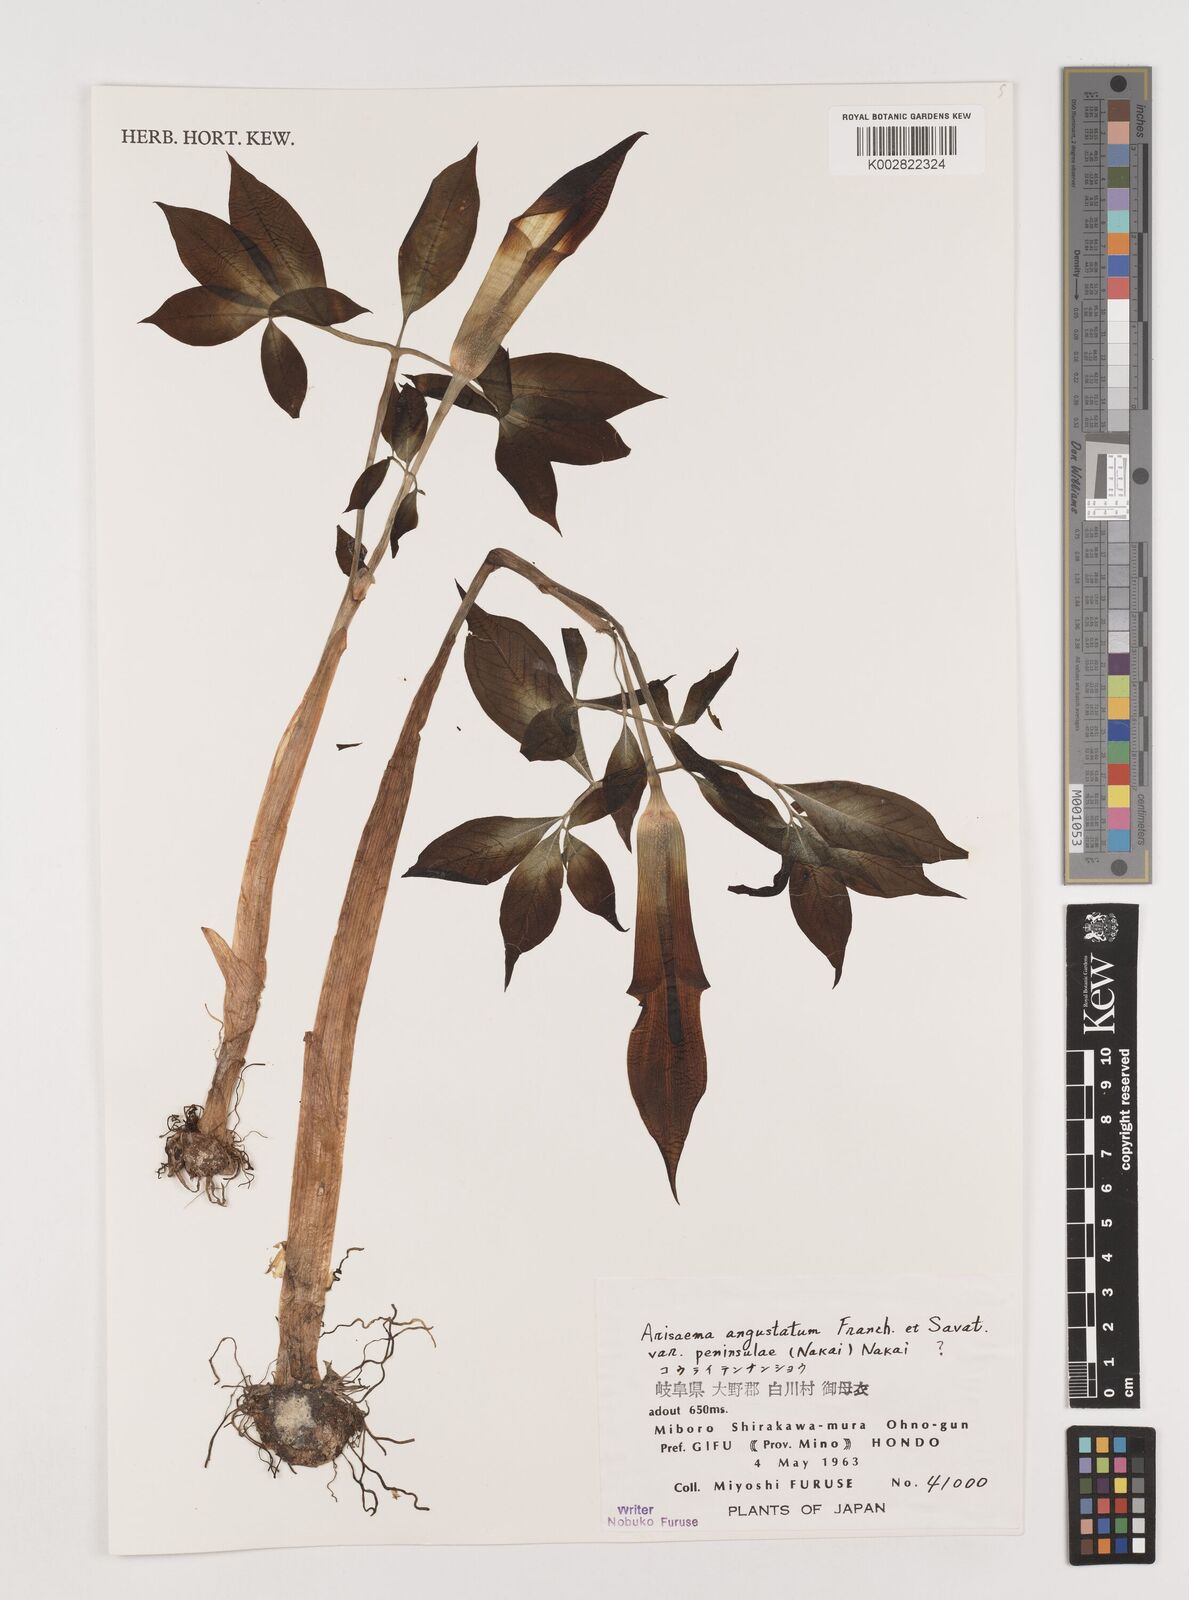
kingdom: Plantae
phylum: Tracheophyta
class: Liliopsida
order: Alismatales
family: Araceae
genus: Arisaema
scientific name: Arisaema angustatum
